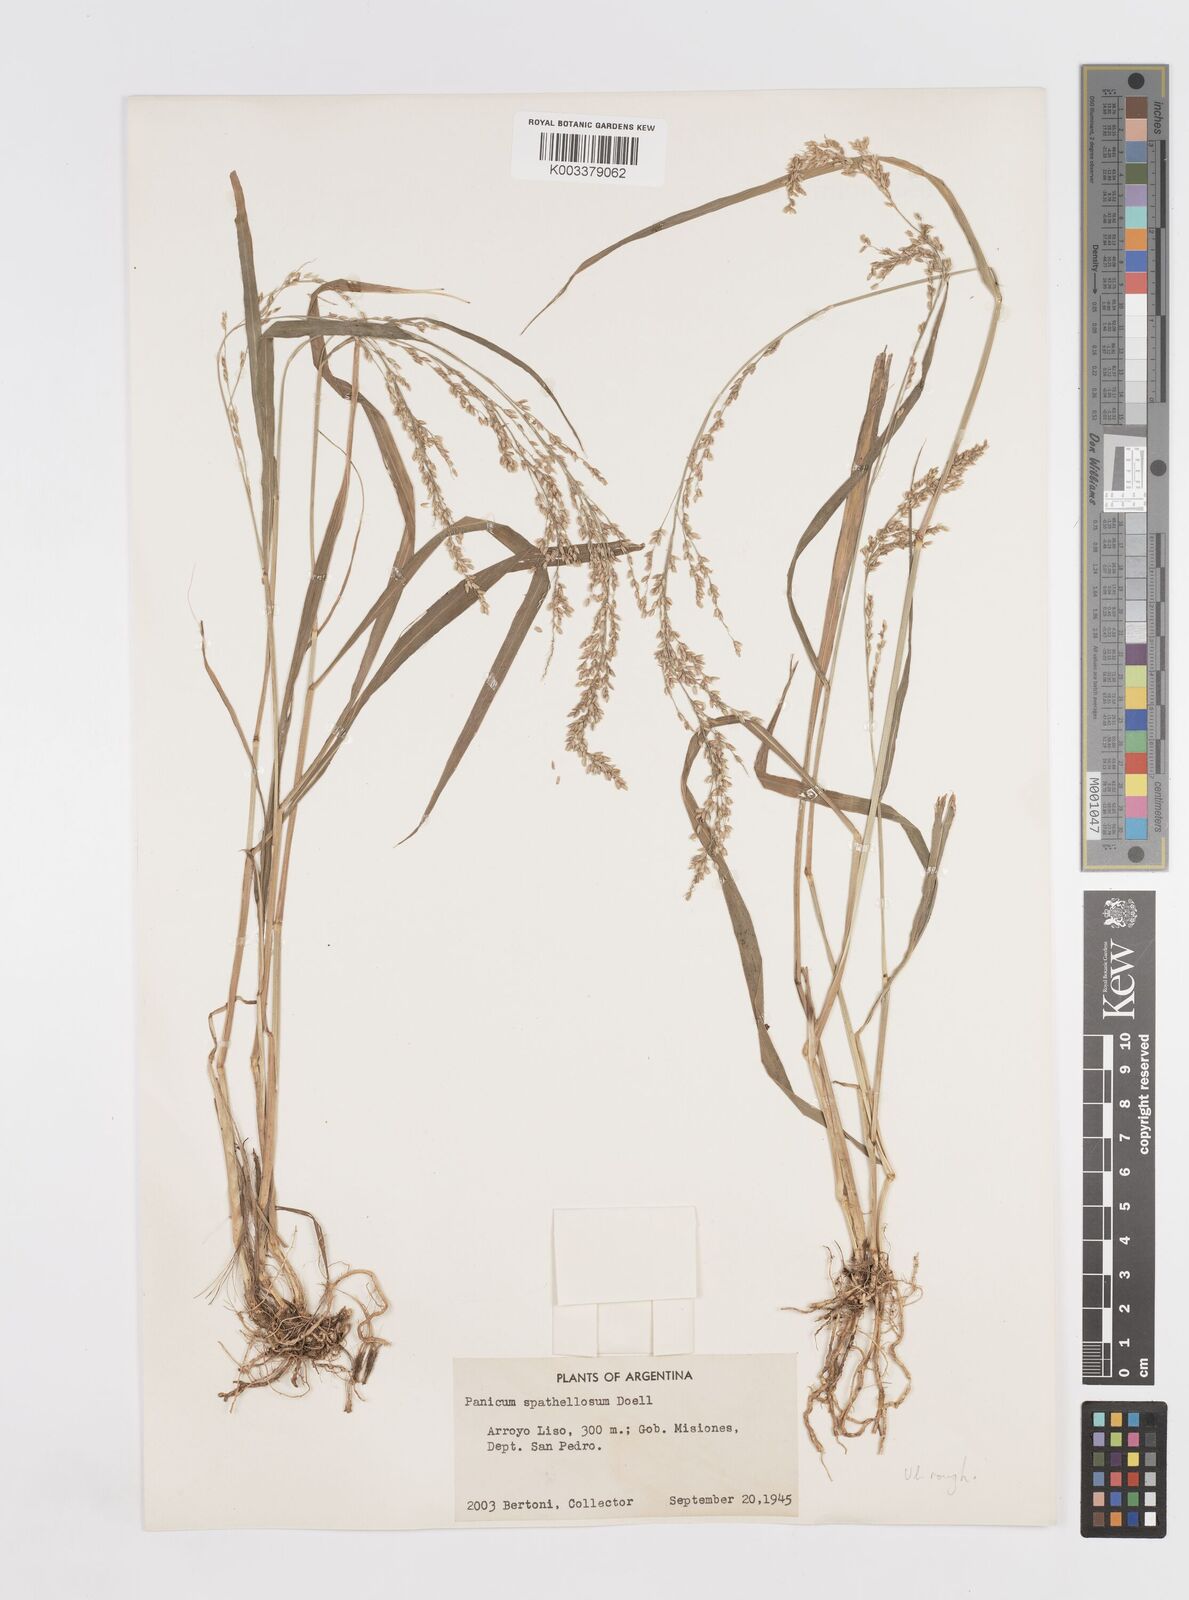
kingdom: Plantae
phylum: Tracheophyta
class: Liliopsida
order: Poales
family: Poaceae
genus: Steinchisma
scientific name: Steinchisma spathellosum
